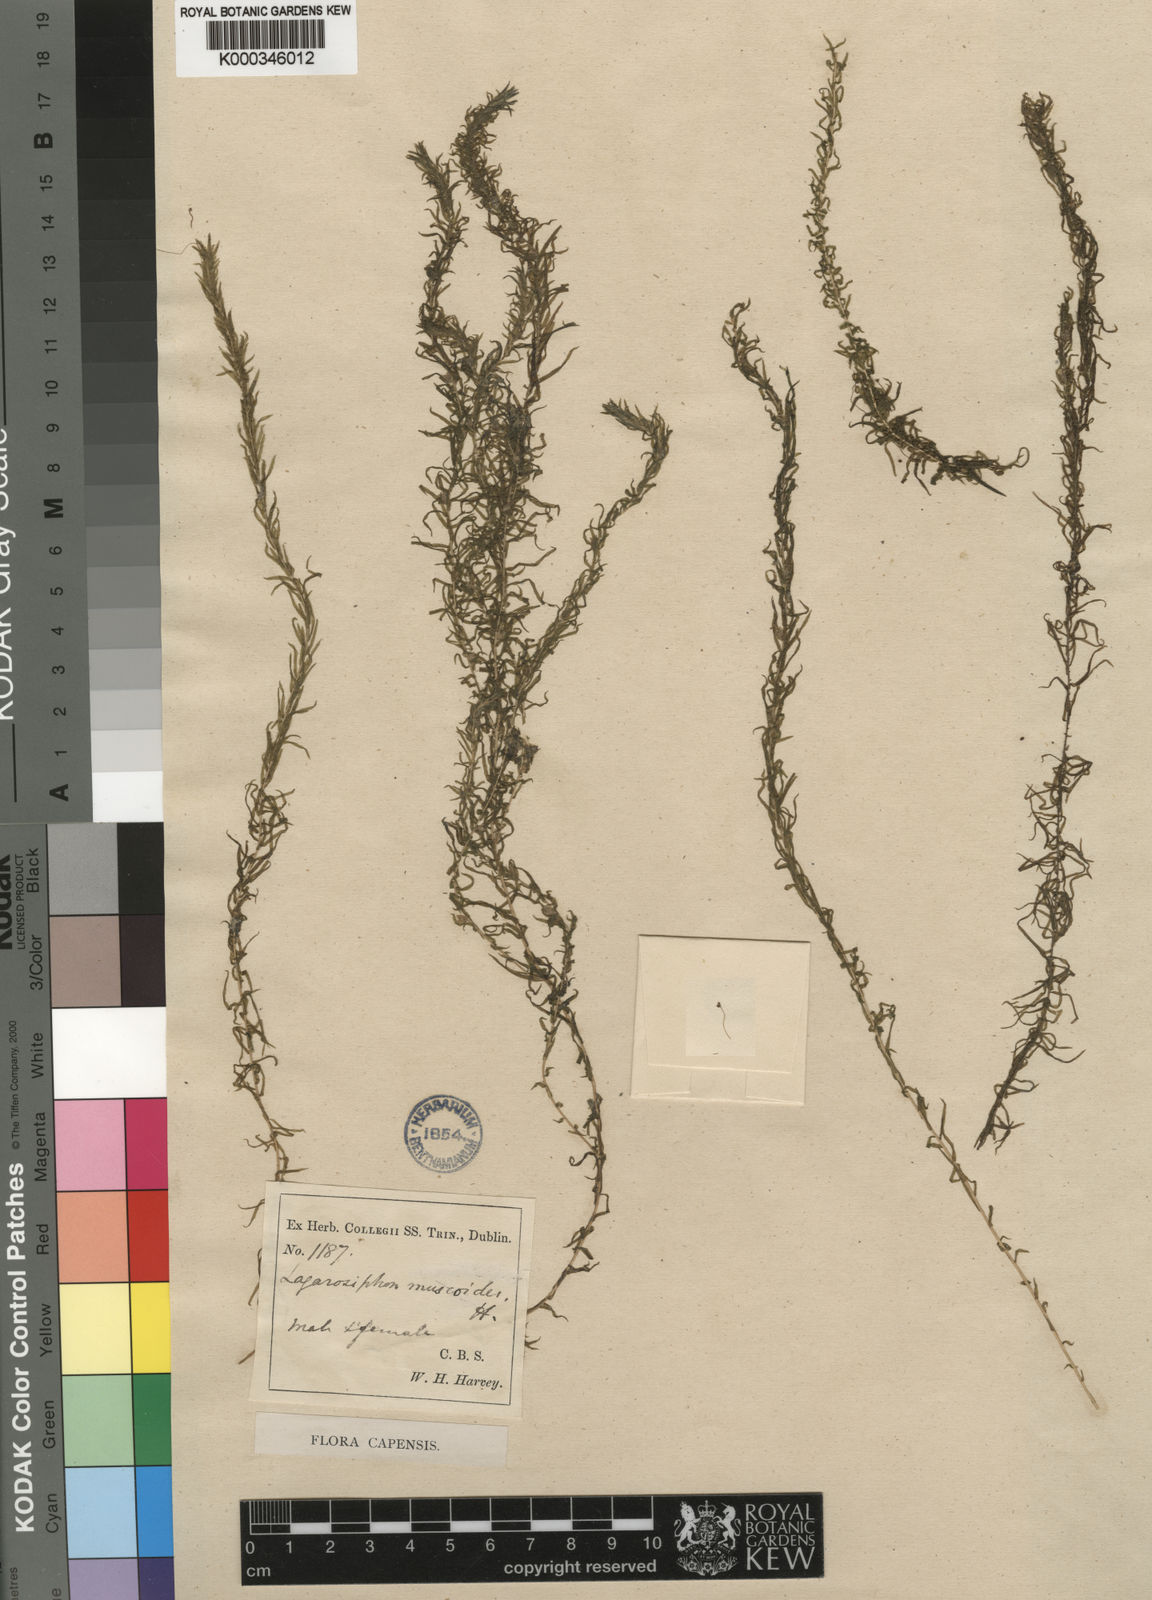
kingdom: Plantae
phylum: Tracheophyta
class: Liliopsida
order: Alismatales
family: Hydrocharitaceae
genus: Lagarosiphon
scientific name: Lagarosiphon muscoides
